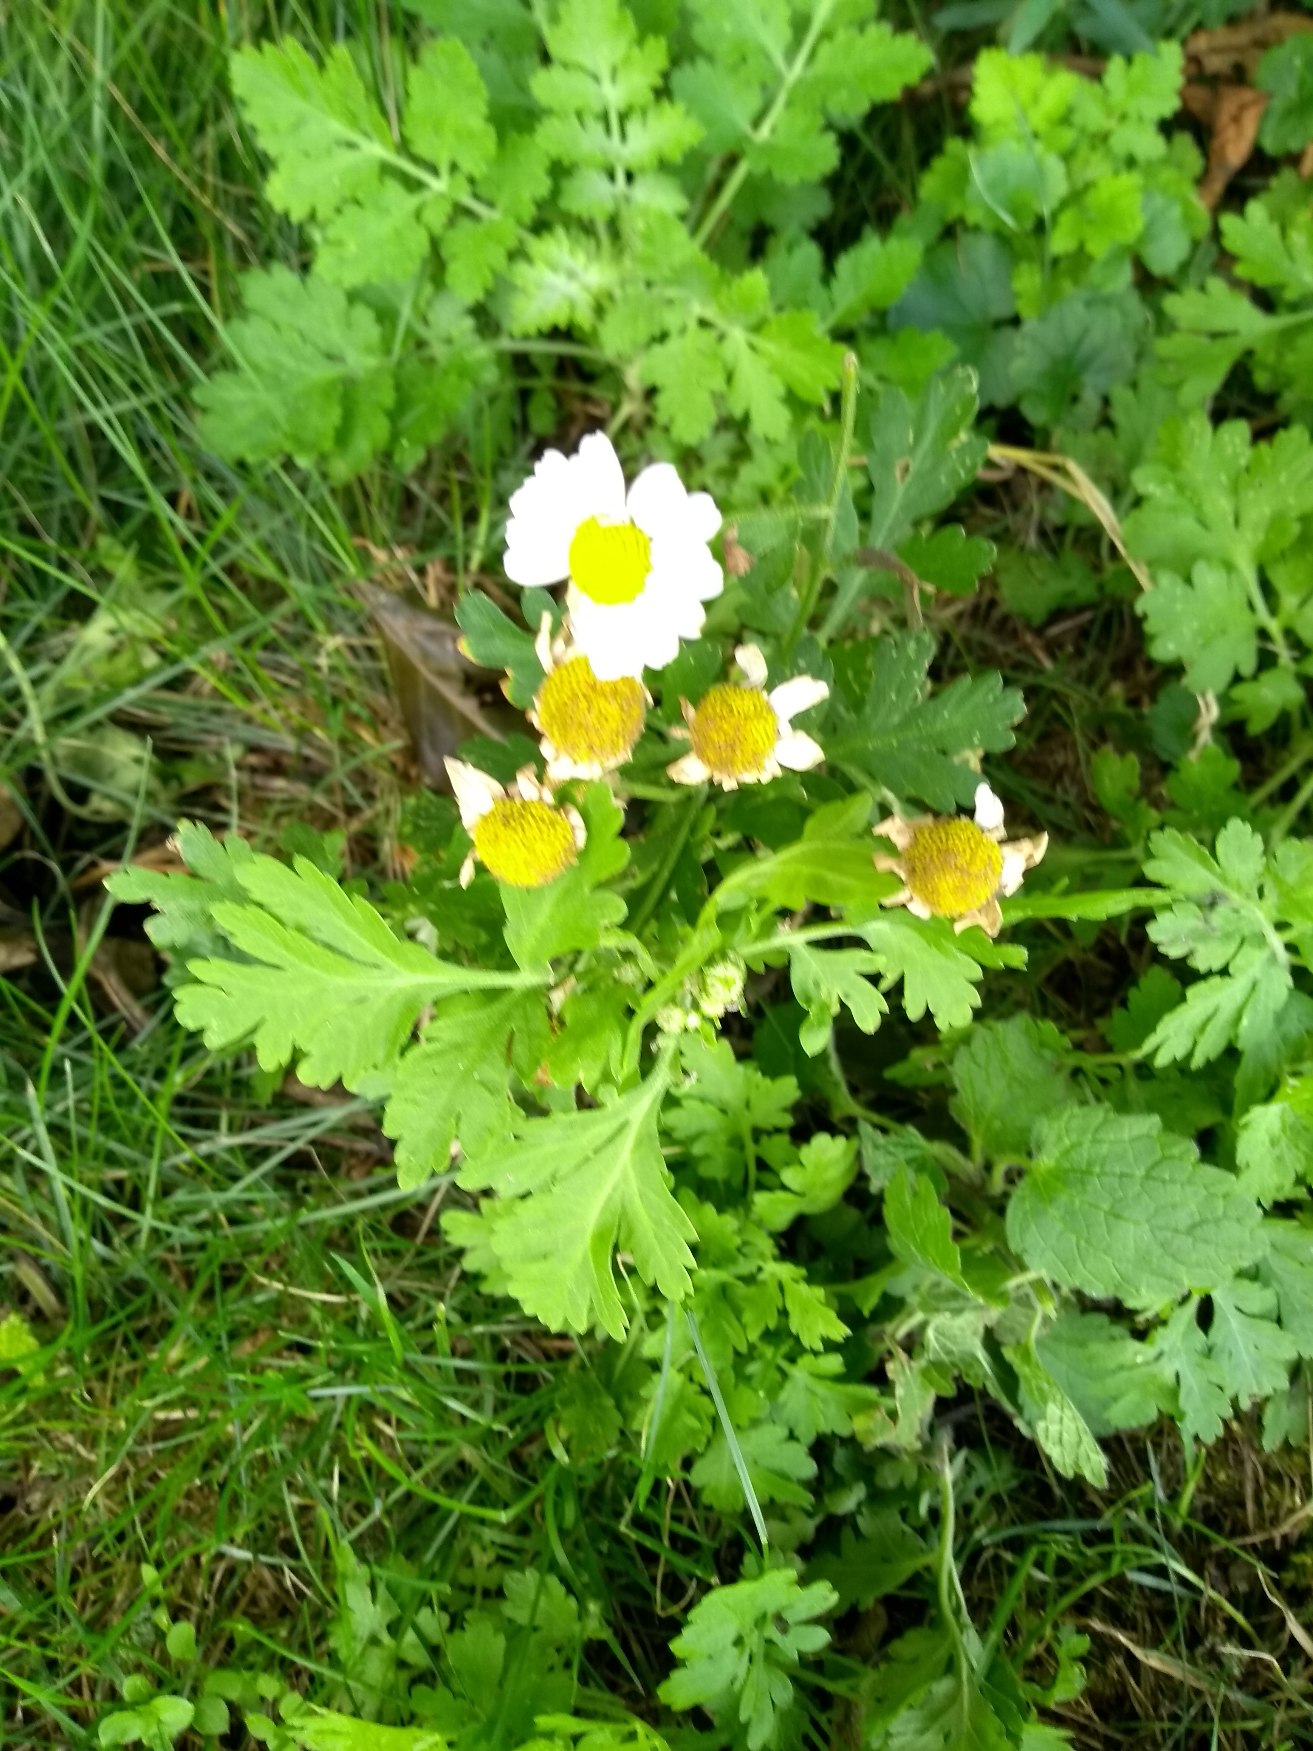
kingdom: Plantae
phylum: Tracheophyta
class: Magnoliopsida
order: Asterales
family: Asteraceae
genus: Tanacetum
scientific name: Tanacetum parthenium
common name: Matrem
